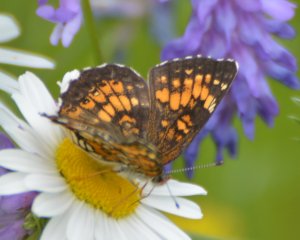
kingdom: Animalia
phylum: Arthropoda
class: Insecta
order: Lepidoptera
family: Nymphalidae
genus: Chlosyne
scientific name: Chlosyne harrisii
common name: Harris's Checkerspot
